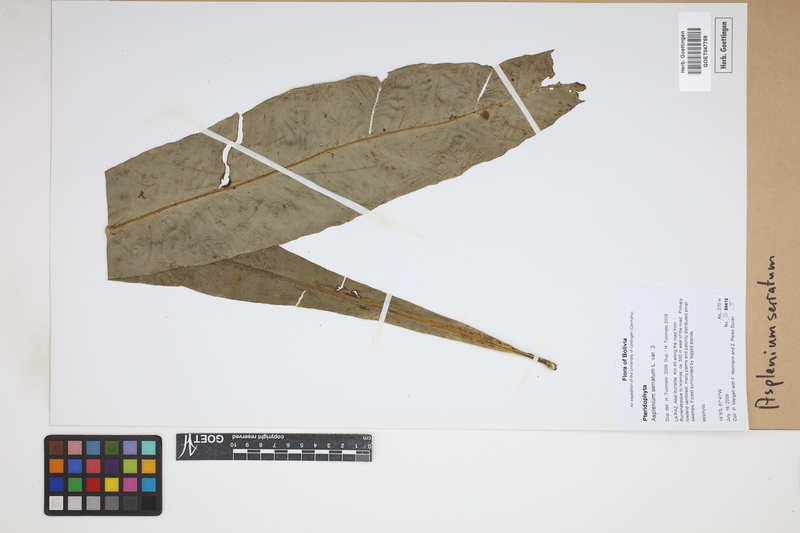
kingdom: Plantae
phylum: Tracheophyta
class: Polypodiopsida
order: Polypodiales
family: Aspleniaceae
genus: Asplenium
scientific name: Asplenium serratum
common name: Wild birdnest fern
